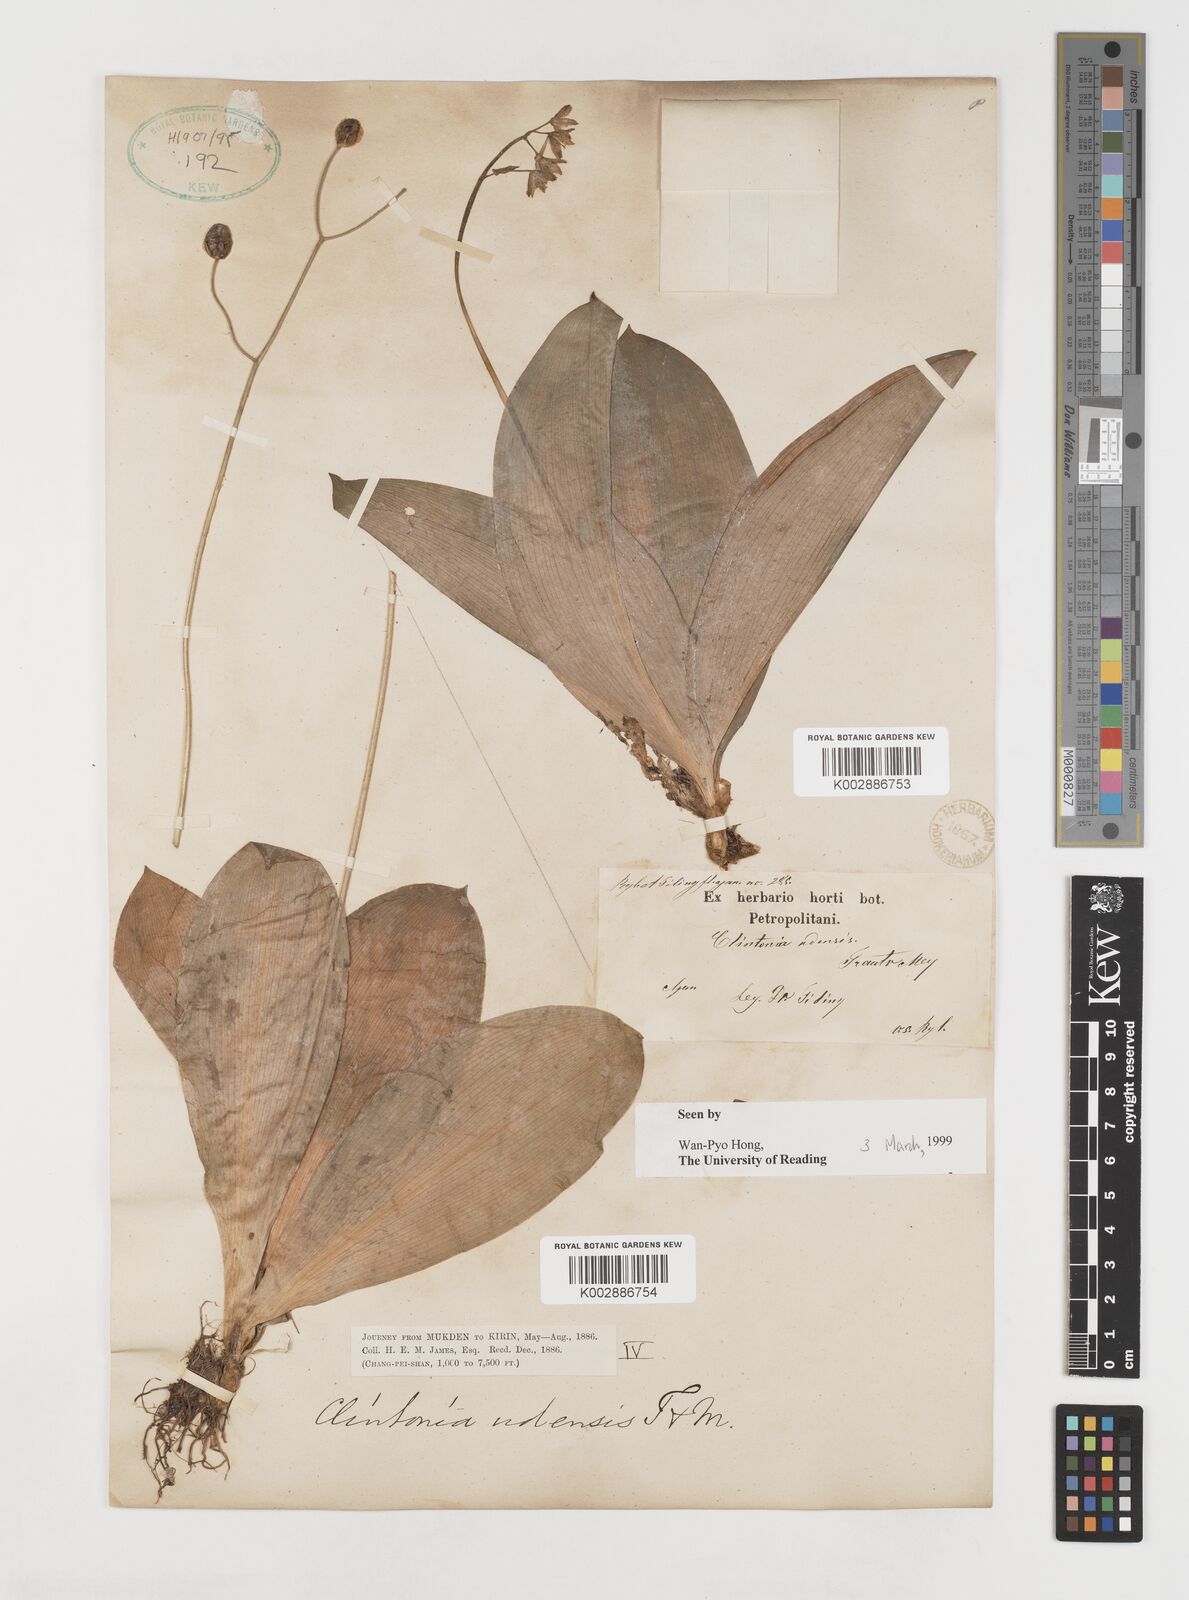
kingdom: Plantae
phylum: Tracheophyta
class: Liliopsida
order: Liliales
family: Liliaceae
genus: Clintonia
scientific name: Clintonia udensis
